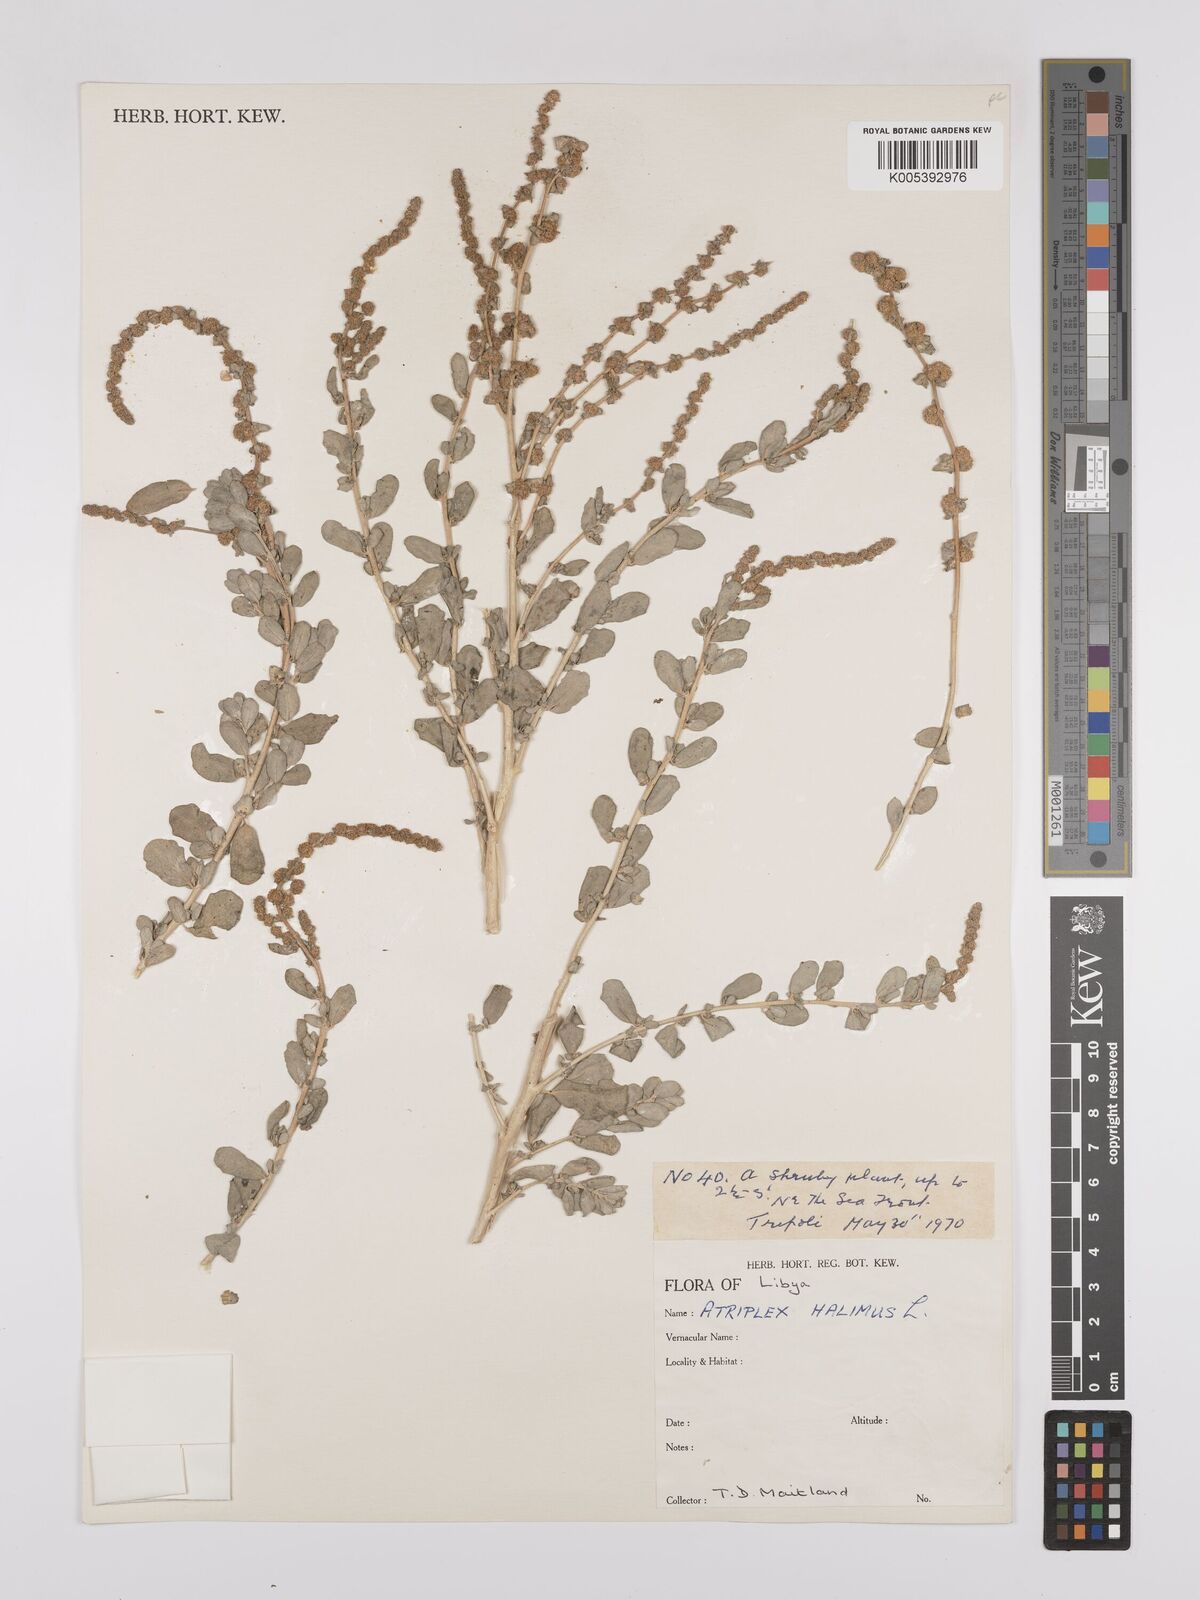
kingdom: Plantae
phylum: Tracheophyta
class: Magnoliopsida
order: Caryophyllales
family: Amaranthaceae
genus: Atriplex
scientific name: Atriplex
